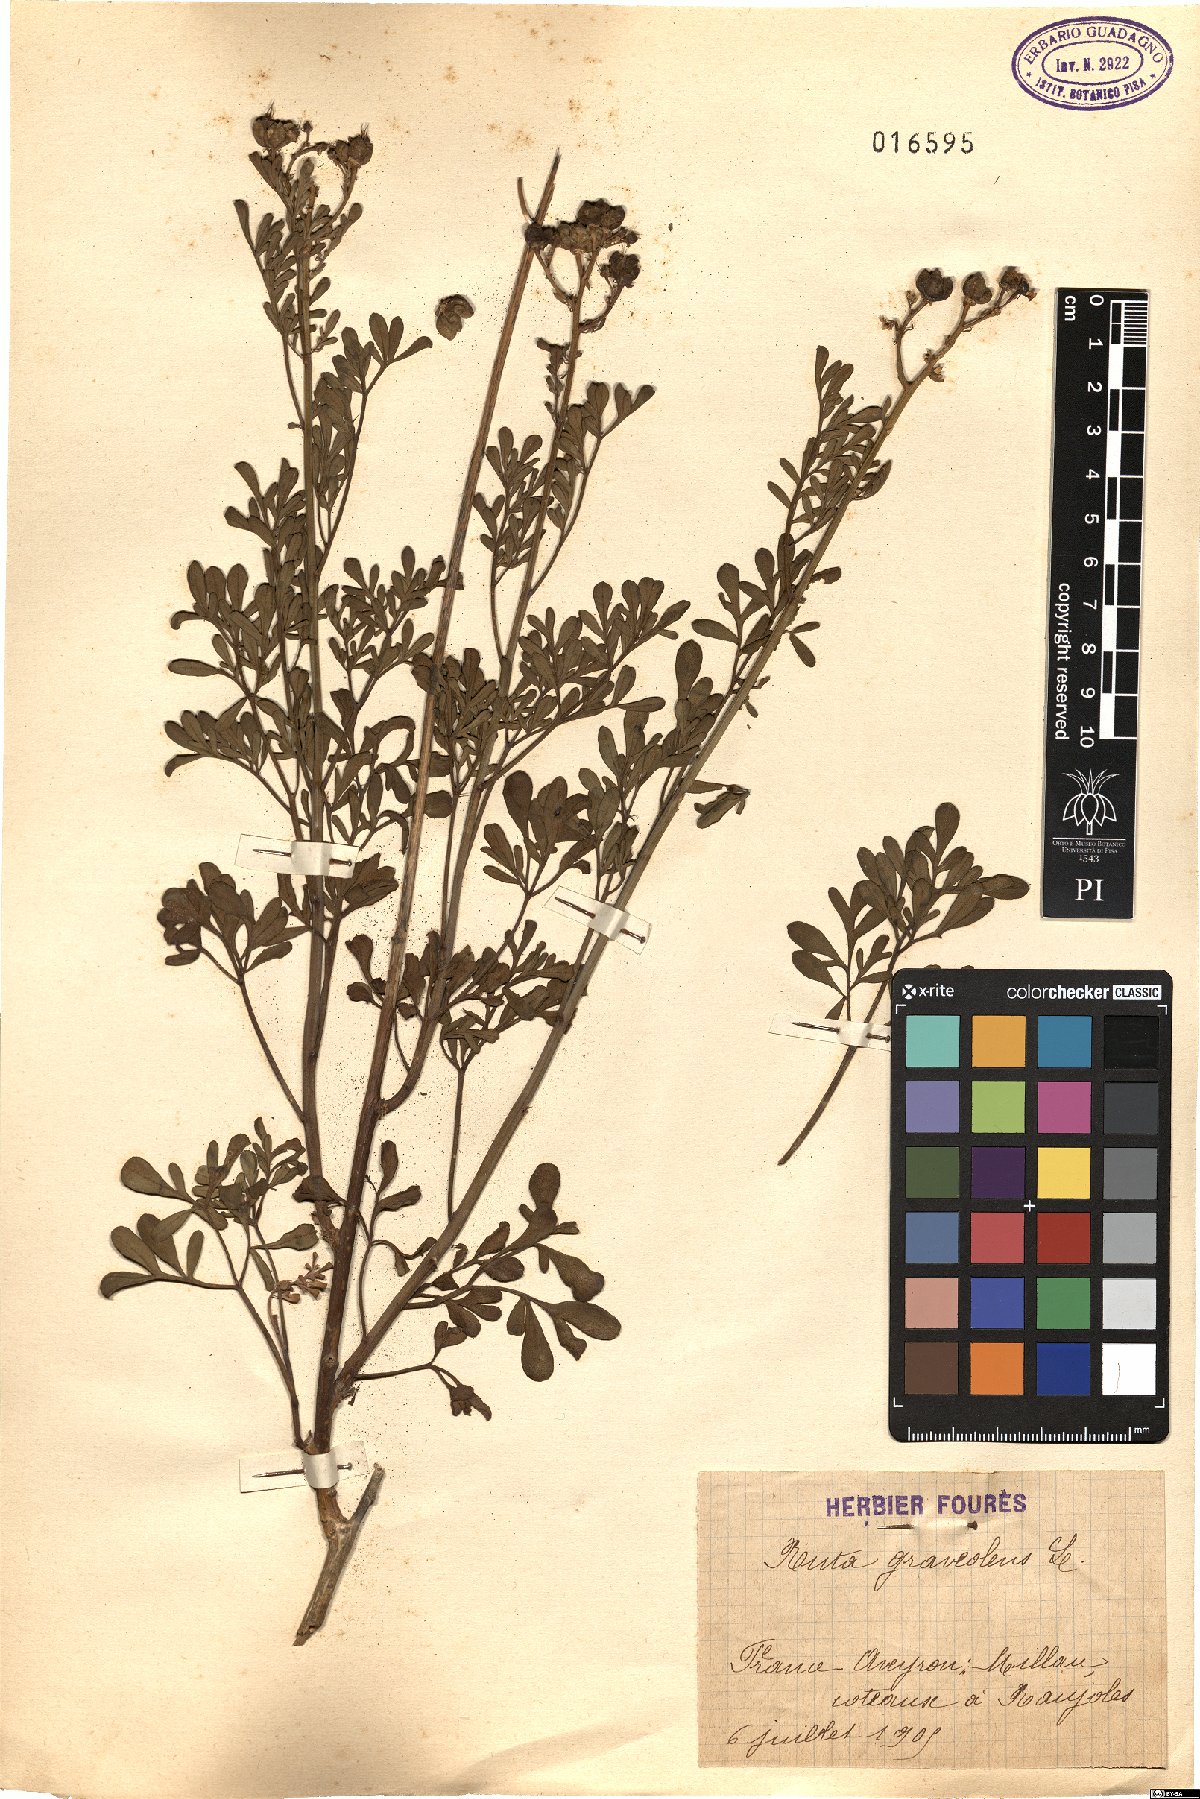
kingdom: Plantae
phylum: Tracheophyta
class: Magnoliopsida
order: Sapindales
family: Rutaceae
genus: Ruta
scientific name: Ruta graveolens
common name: Common rue
